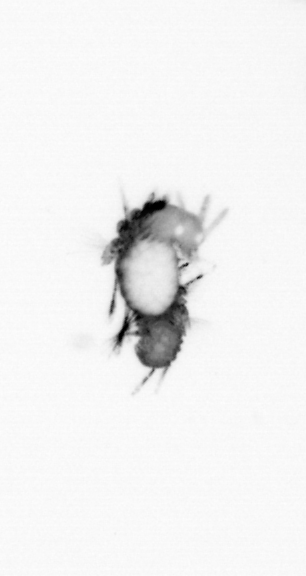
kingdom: Animalia
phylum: Annelida
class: Polychaeta
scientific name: Polychaeta
